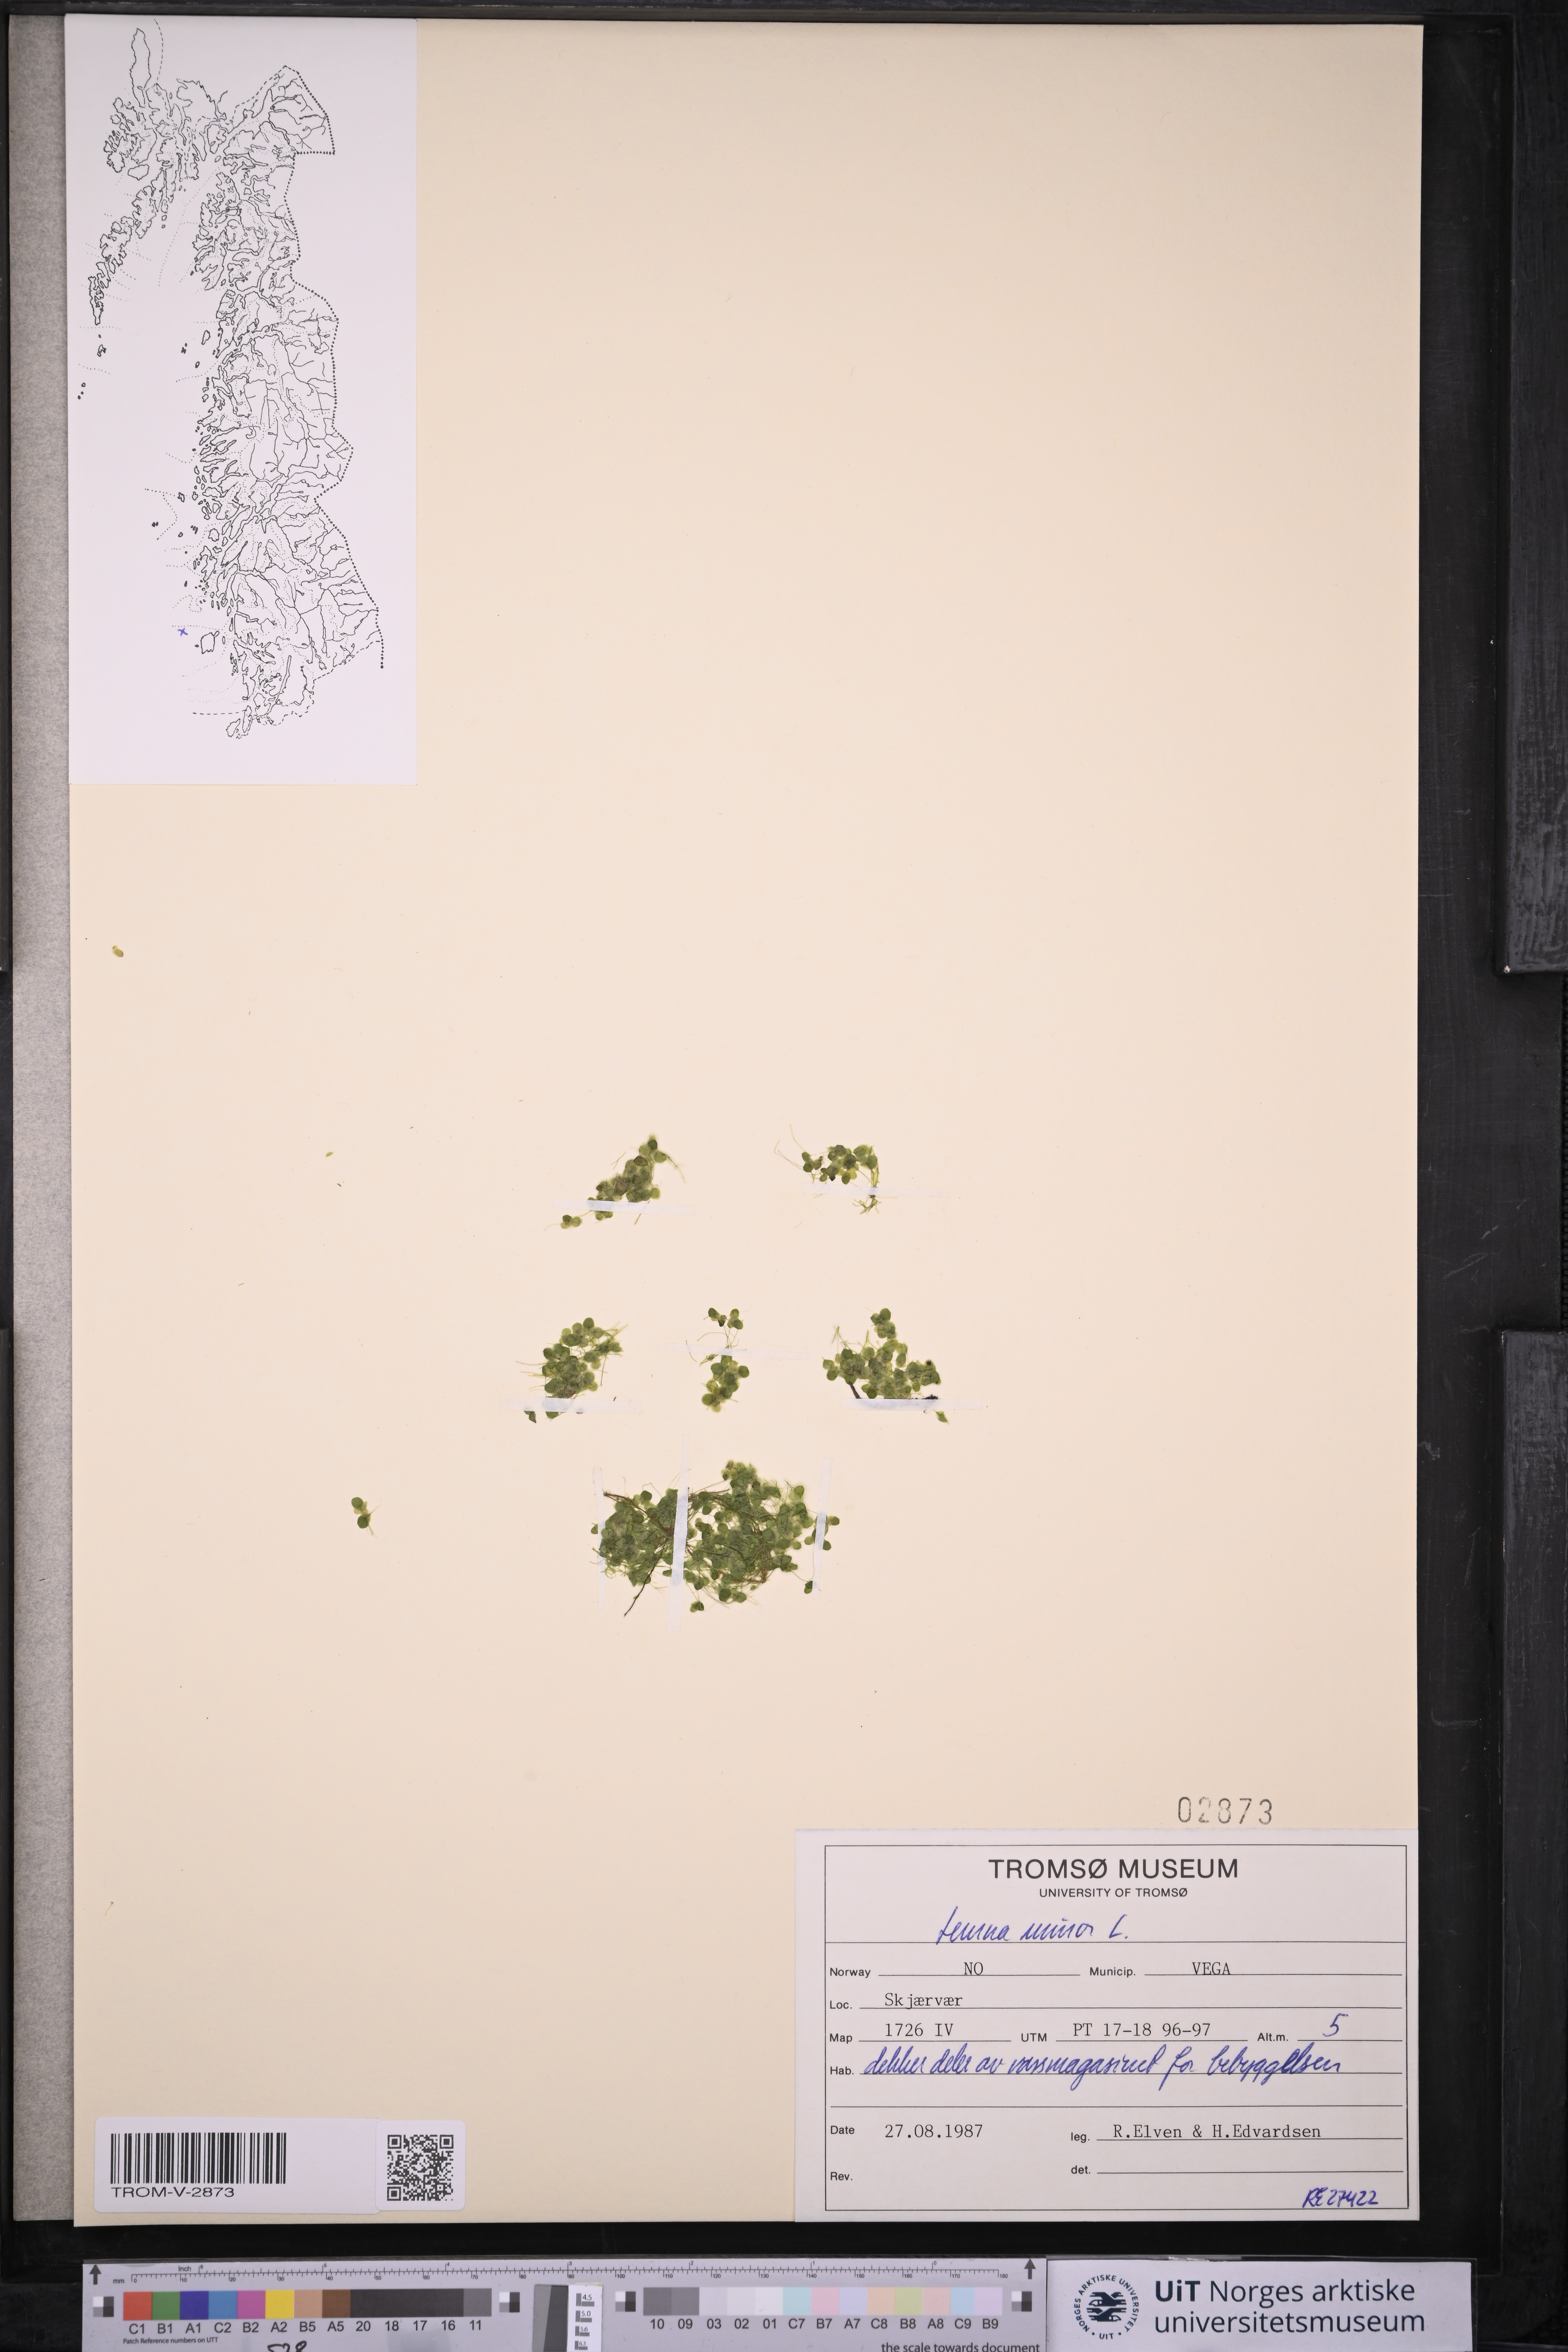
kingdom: Plantae
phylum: Tracheophyta
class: Liliopsida
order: Alismatales
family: Araceae
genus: Lemna
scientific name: Lemna minor
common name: Common duckweed
